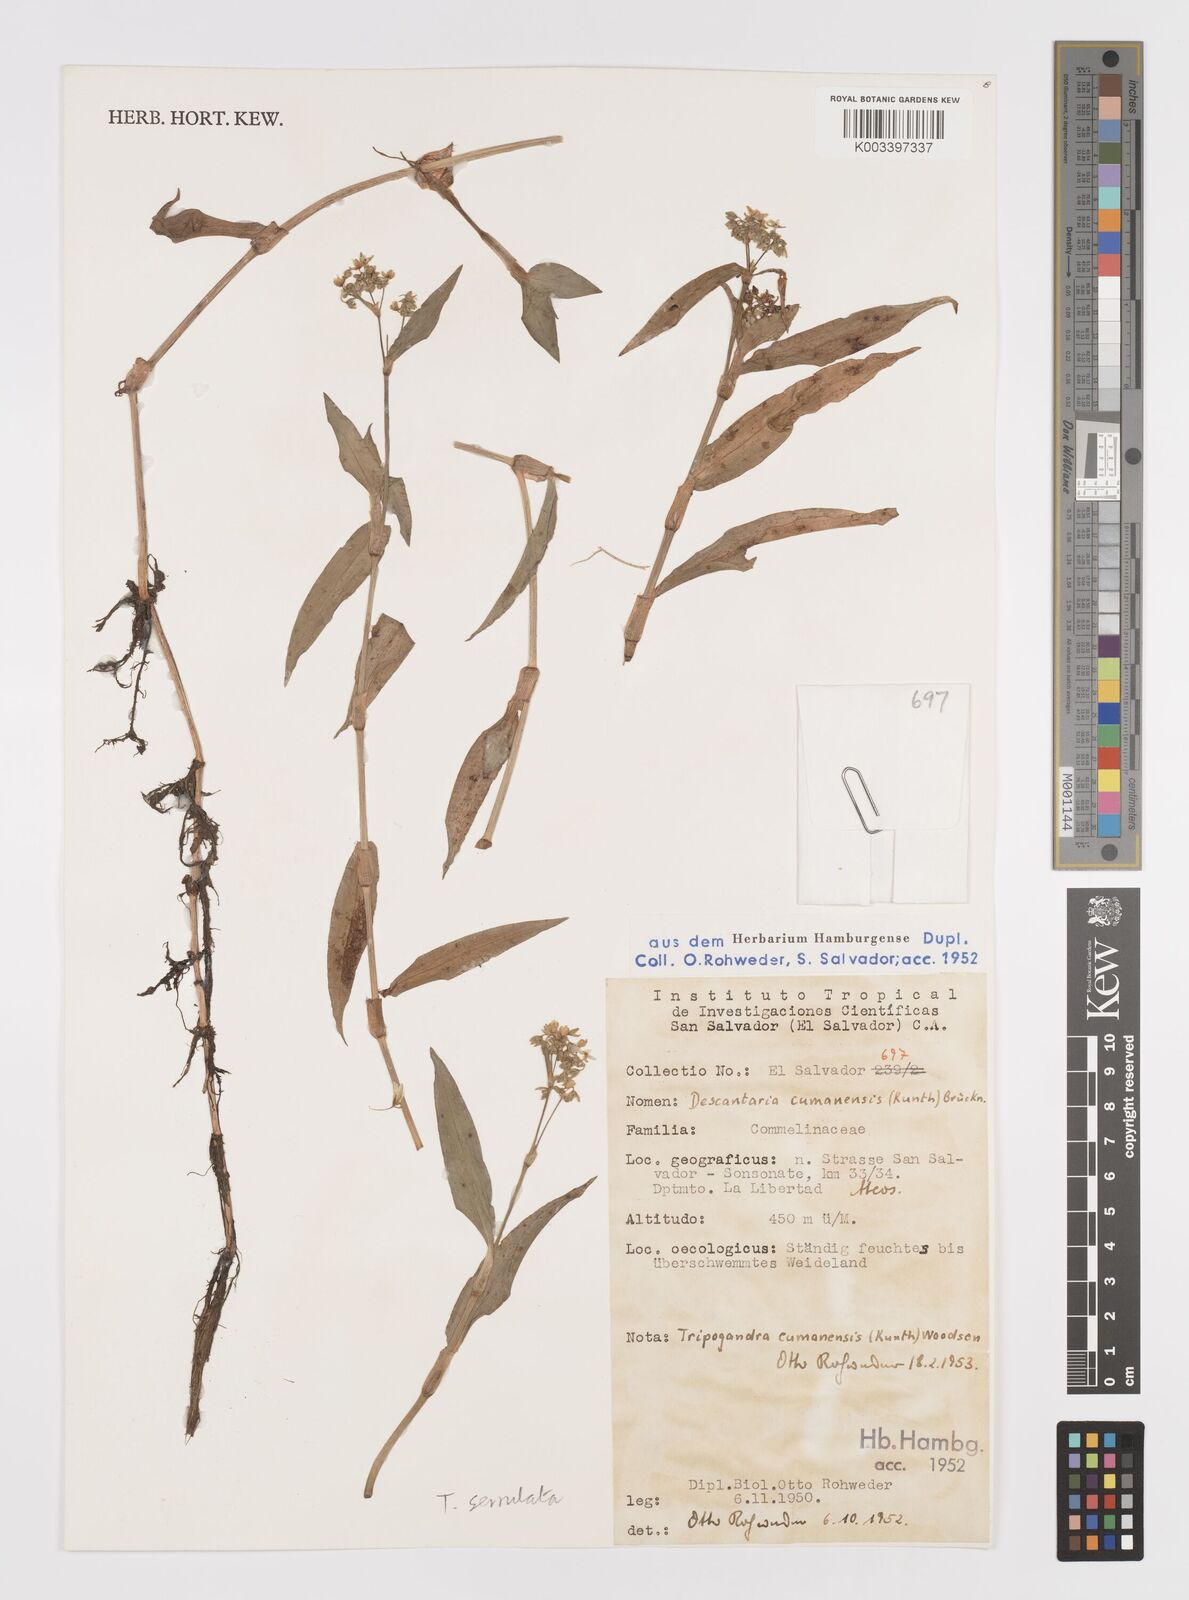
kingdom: Plantae
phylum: Tracheophyta
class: Liliopsida
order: Commelinales
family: Commelinaceae
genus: Callisia
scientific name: Callisia serrulata
